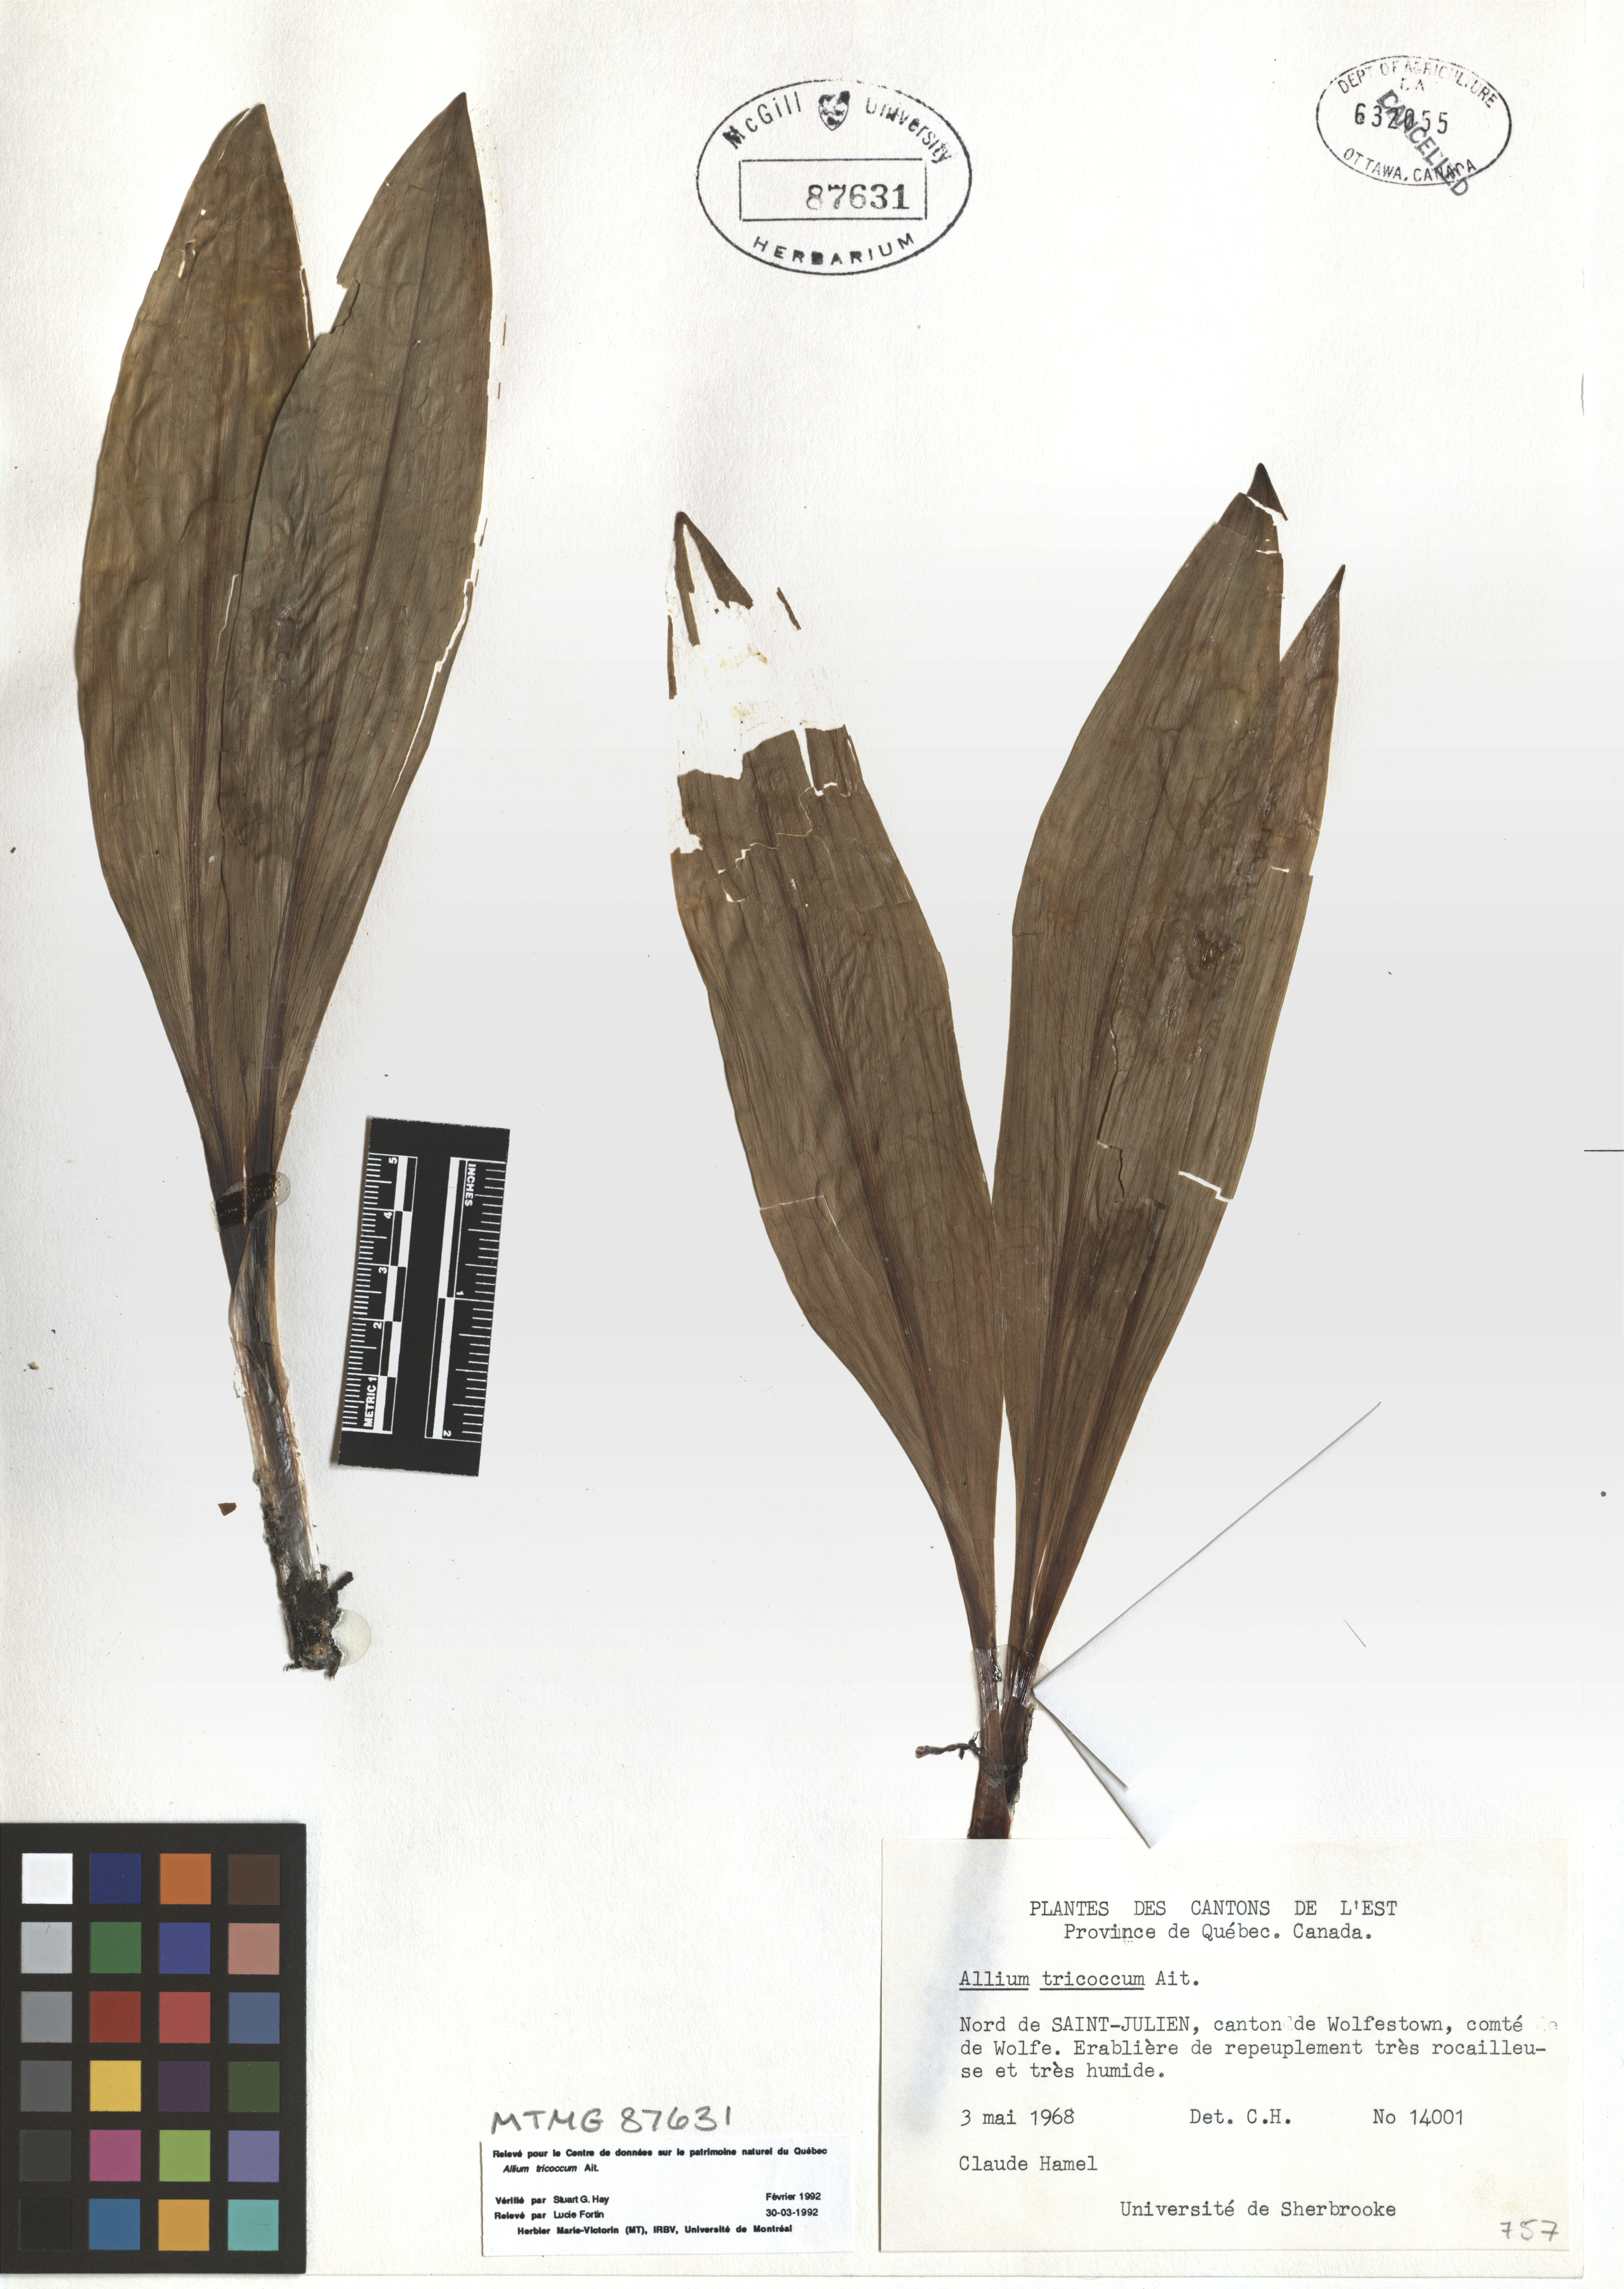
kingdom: Plantae
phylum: Tracheophyta
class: Liliopsida
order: Asparagales
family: Amaryllidaceae
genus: Allium
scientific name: Allium tricoccum
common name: Ramp
